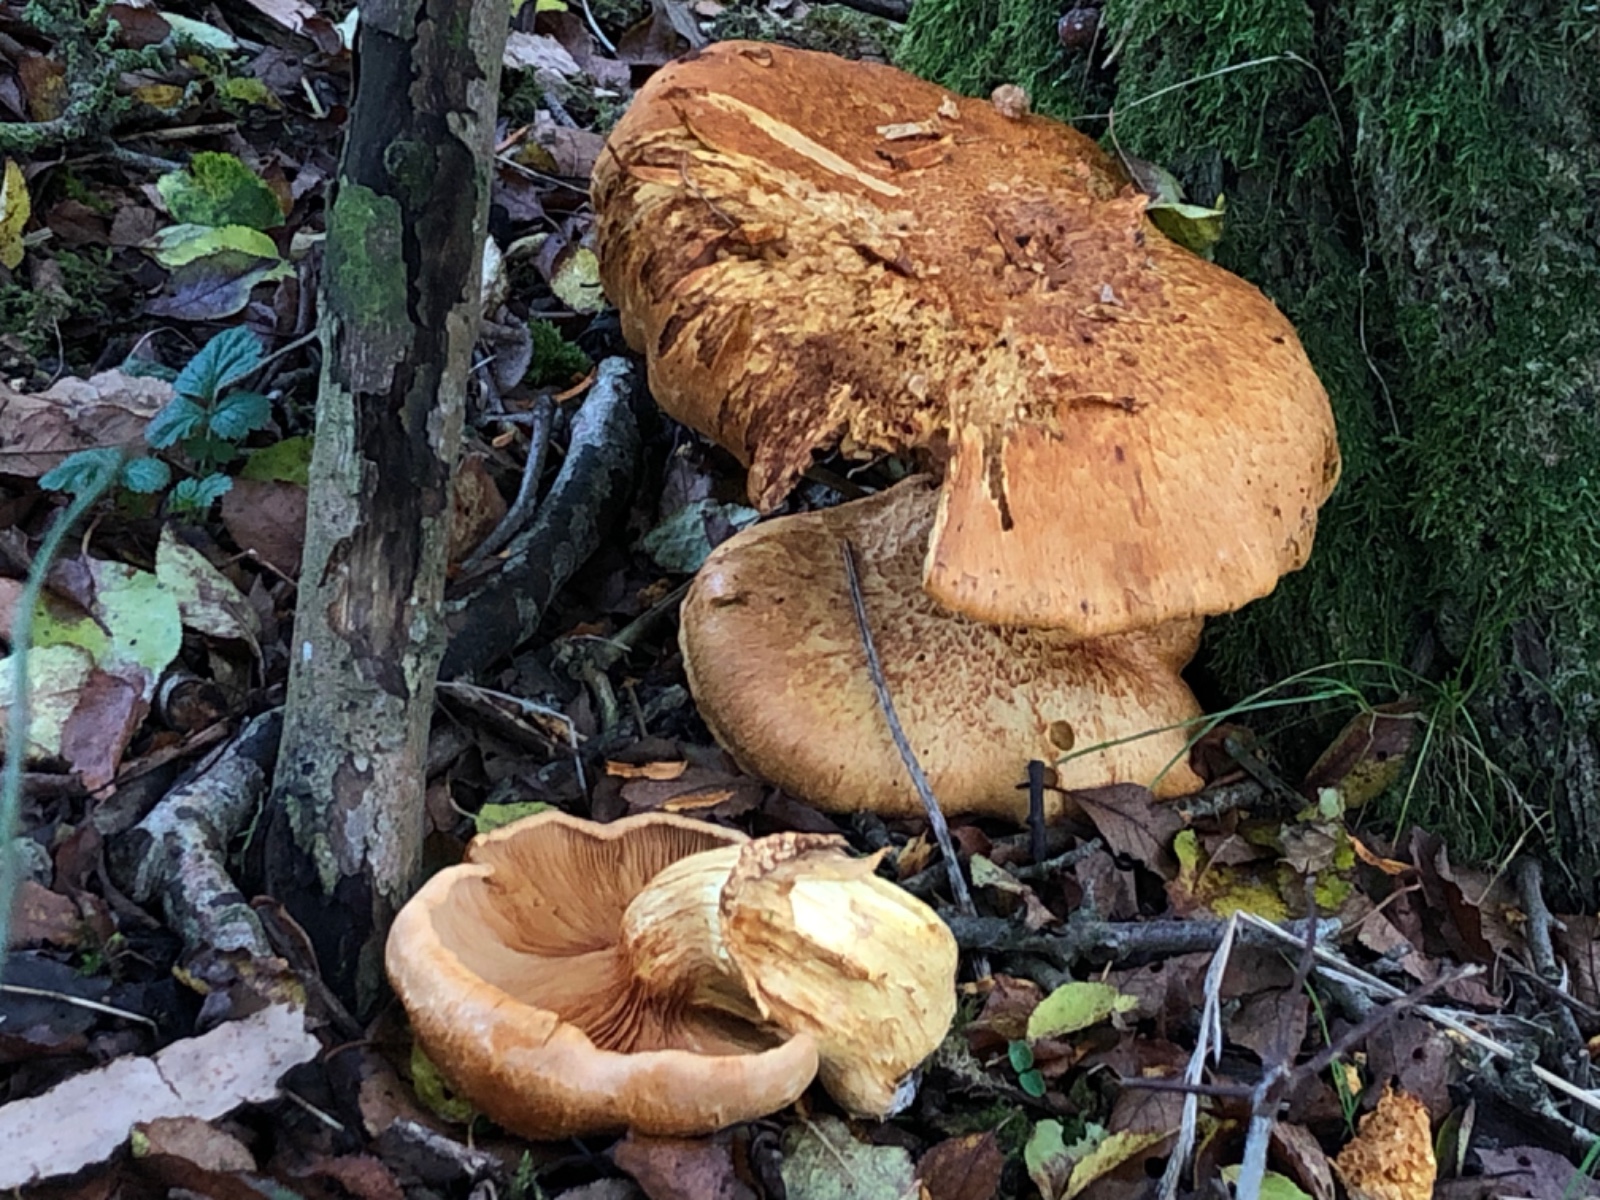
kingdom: Fungi
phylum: Basidiomycota
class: Agaricomycetes
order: Agaricales
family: Hymenogastraceae
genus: Gymnopilus
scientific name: Gymnopilus spectabilis
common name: fibret flammehat
